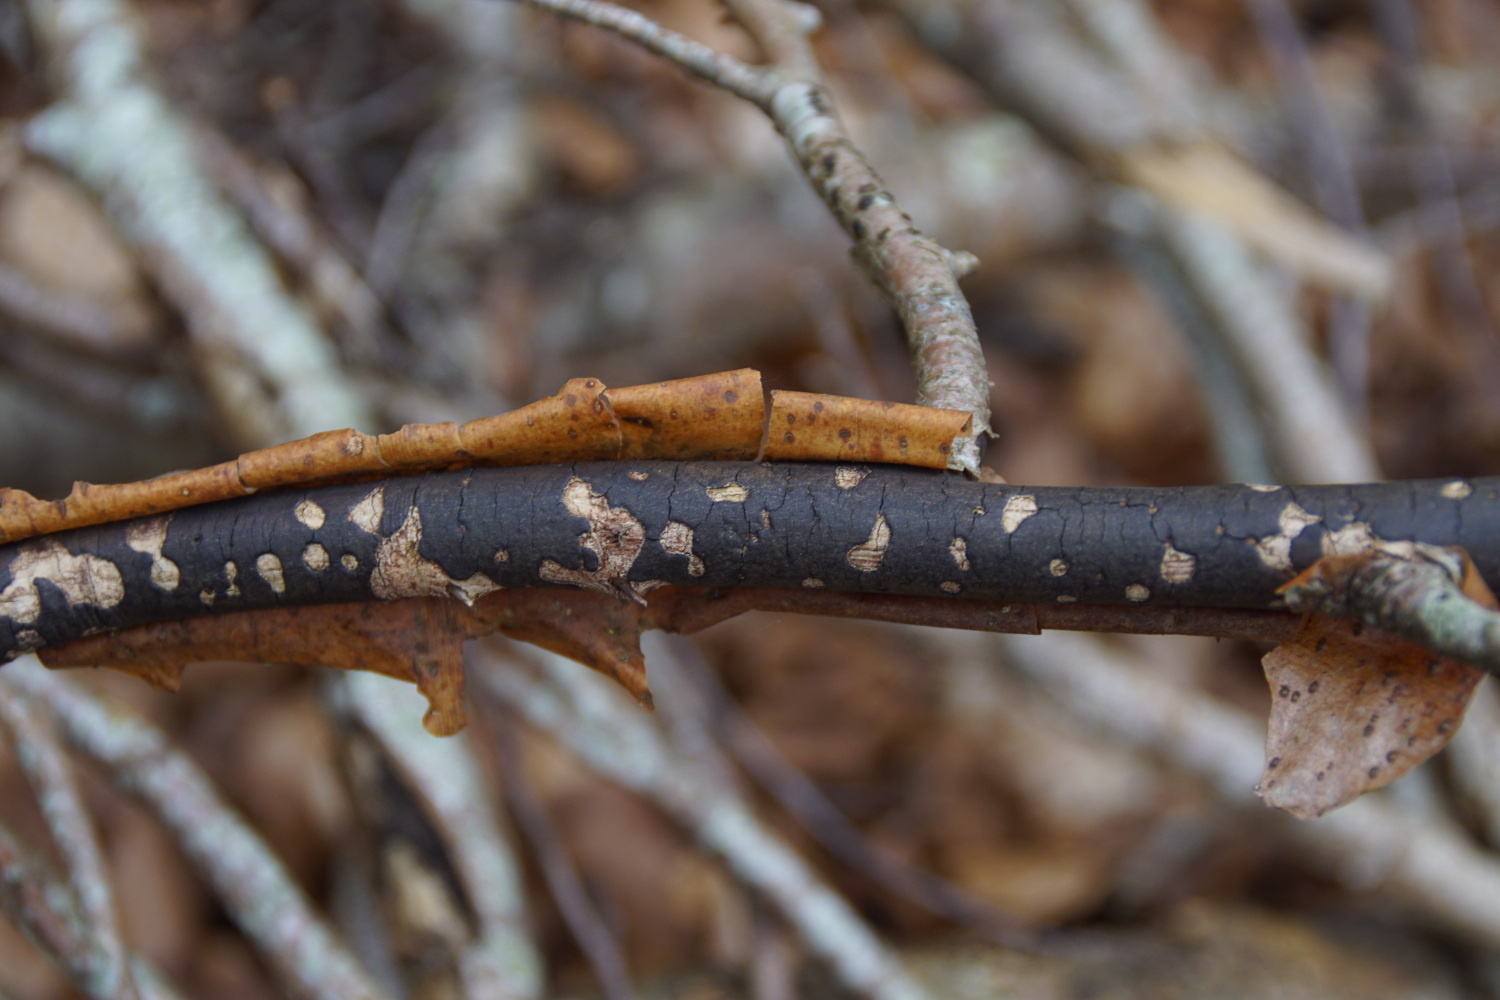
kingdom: Fungi
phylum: Ascomycota
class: Sordariomycetes
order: Xylariales
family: Diatrypaceae
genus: Diatrype
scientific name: Diatrype decorticata
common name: barksprænger-kulskorpe
